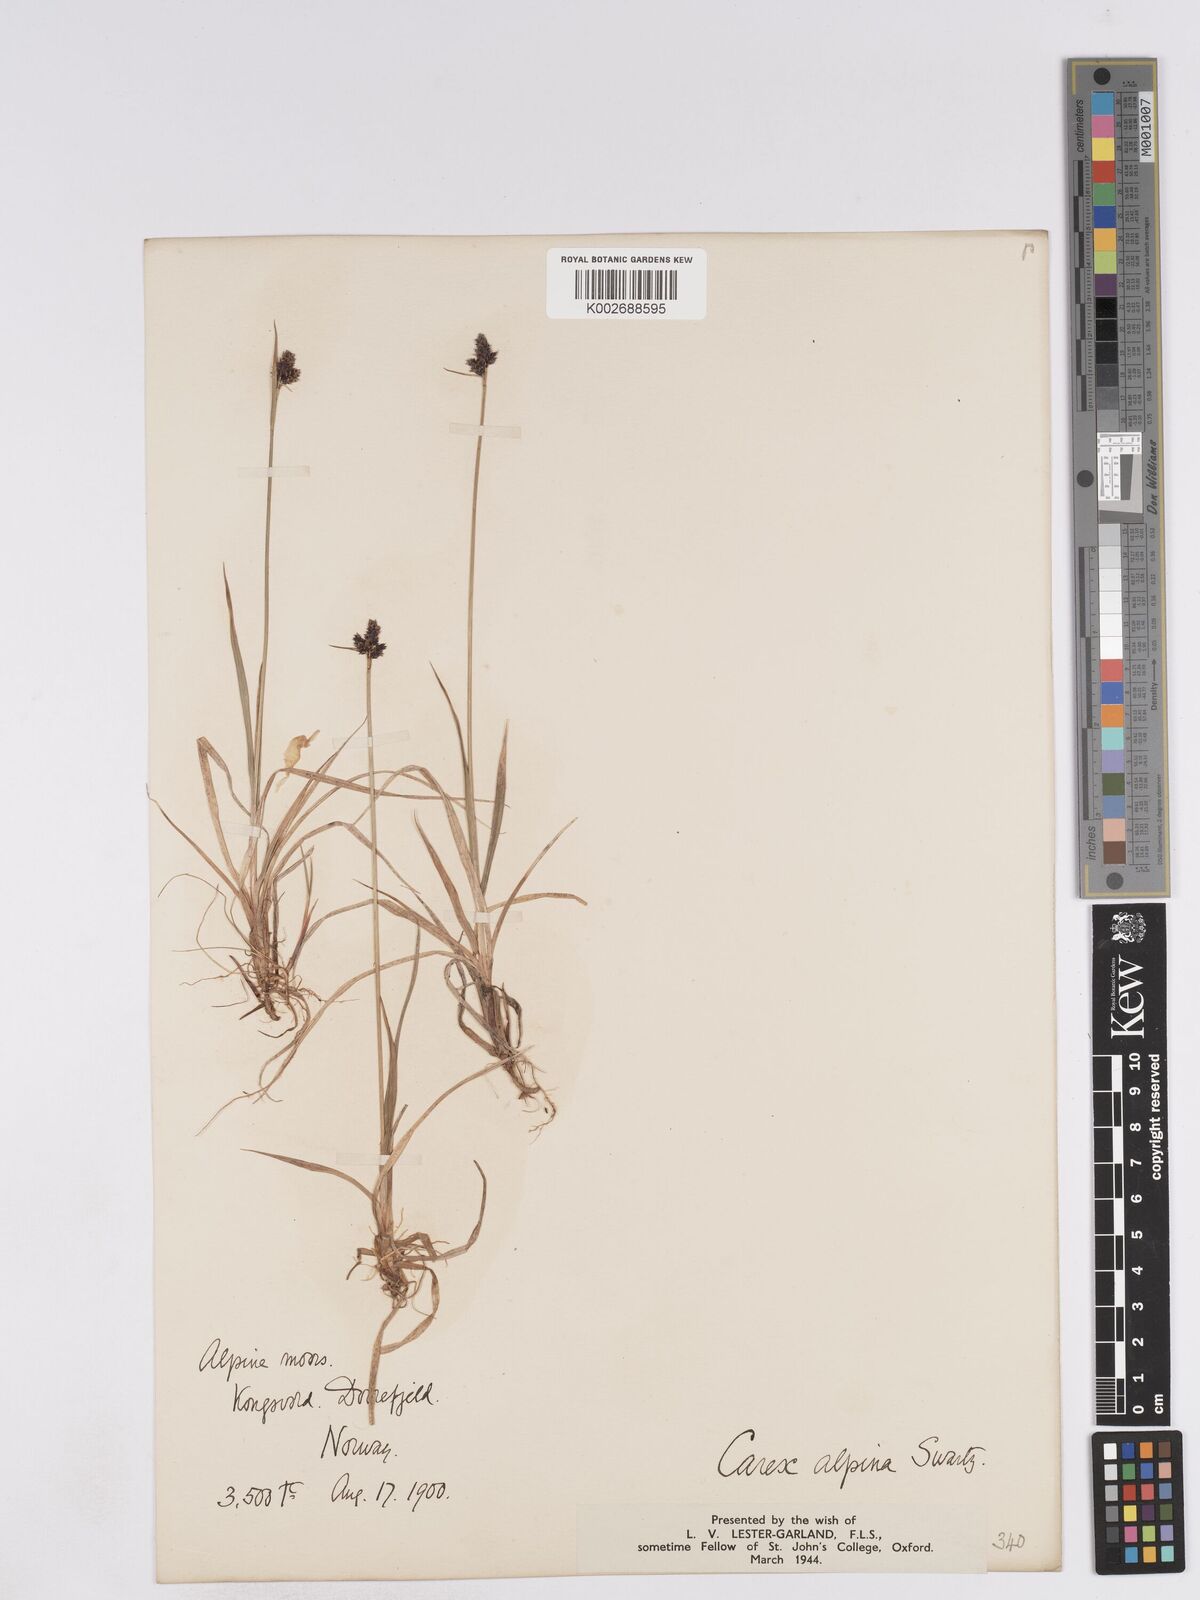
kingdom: Plantae
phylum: Tracheophyta
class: Liliopsida
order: Poales
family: Cyperaceae
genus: Carex
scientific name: Carex norvegica
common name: Close-headed alpine-sedge
